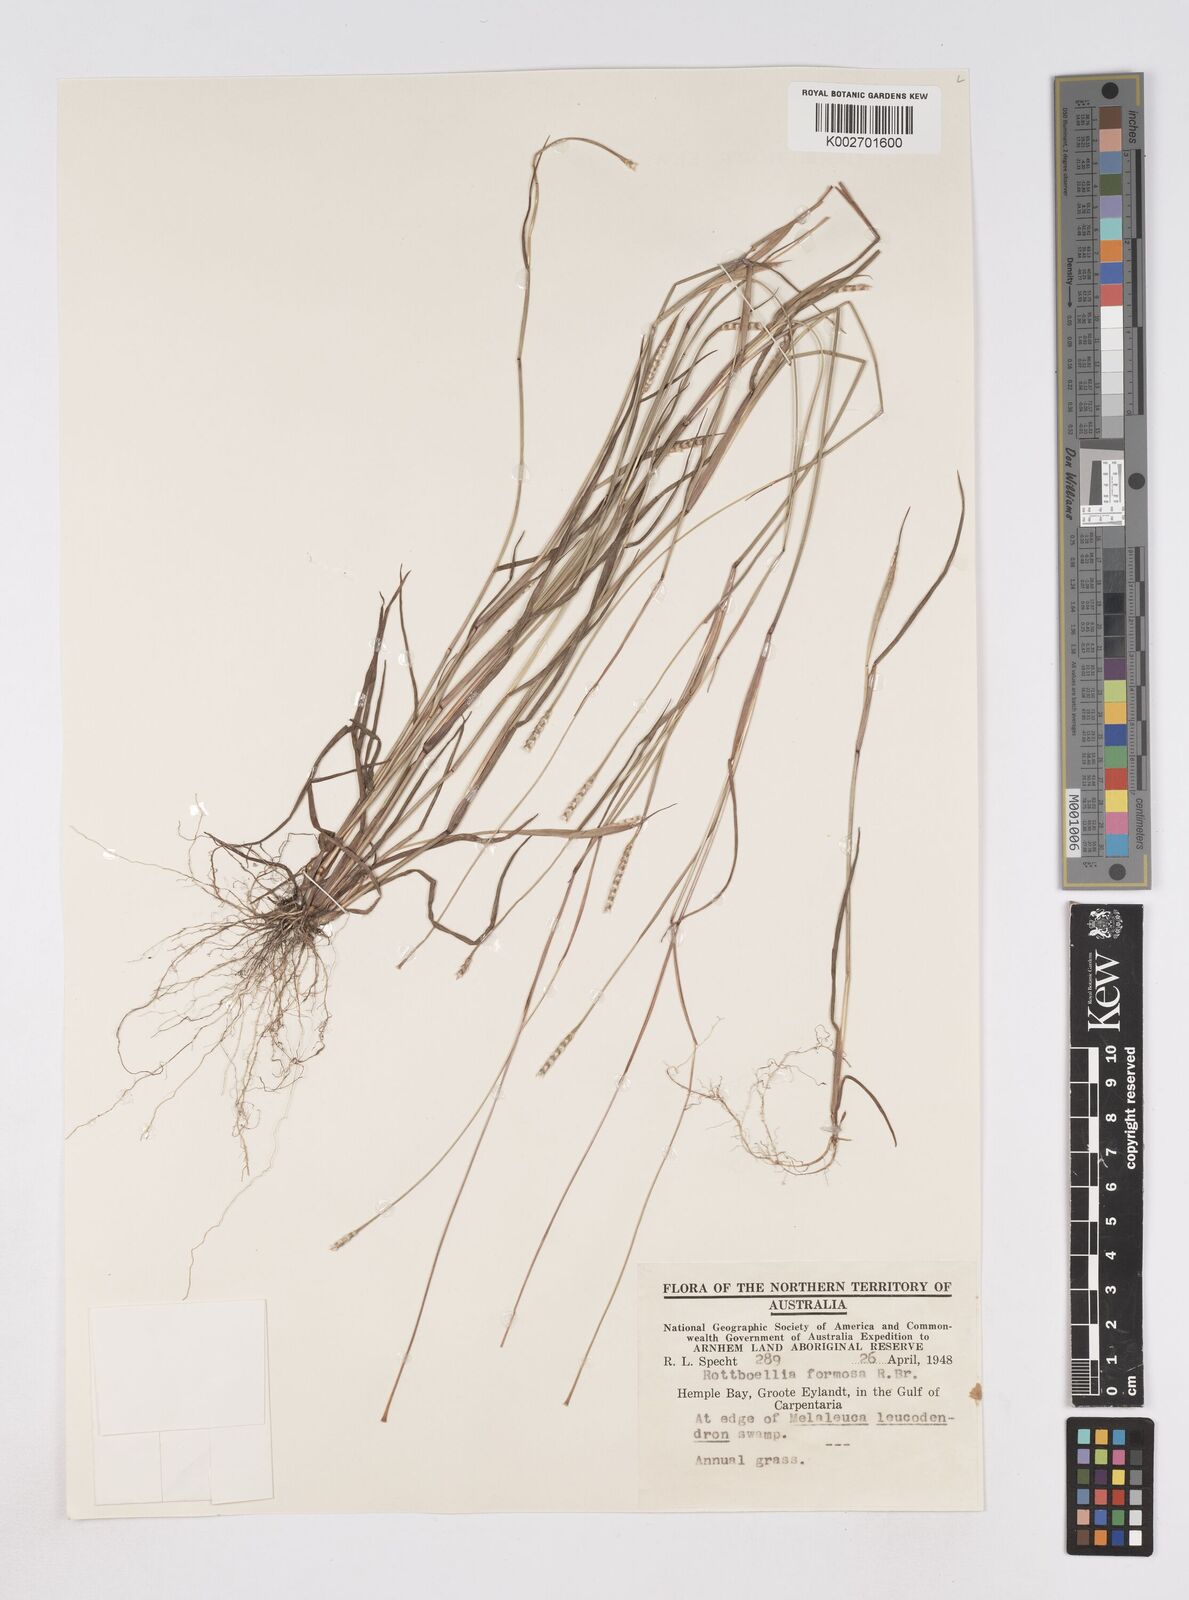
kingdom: Plantae
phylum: Tracheophyta
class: Liliopsida
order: Poales
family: Poaceae
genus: Heteropholis
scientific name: Heteropholis
